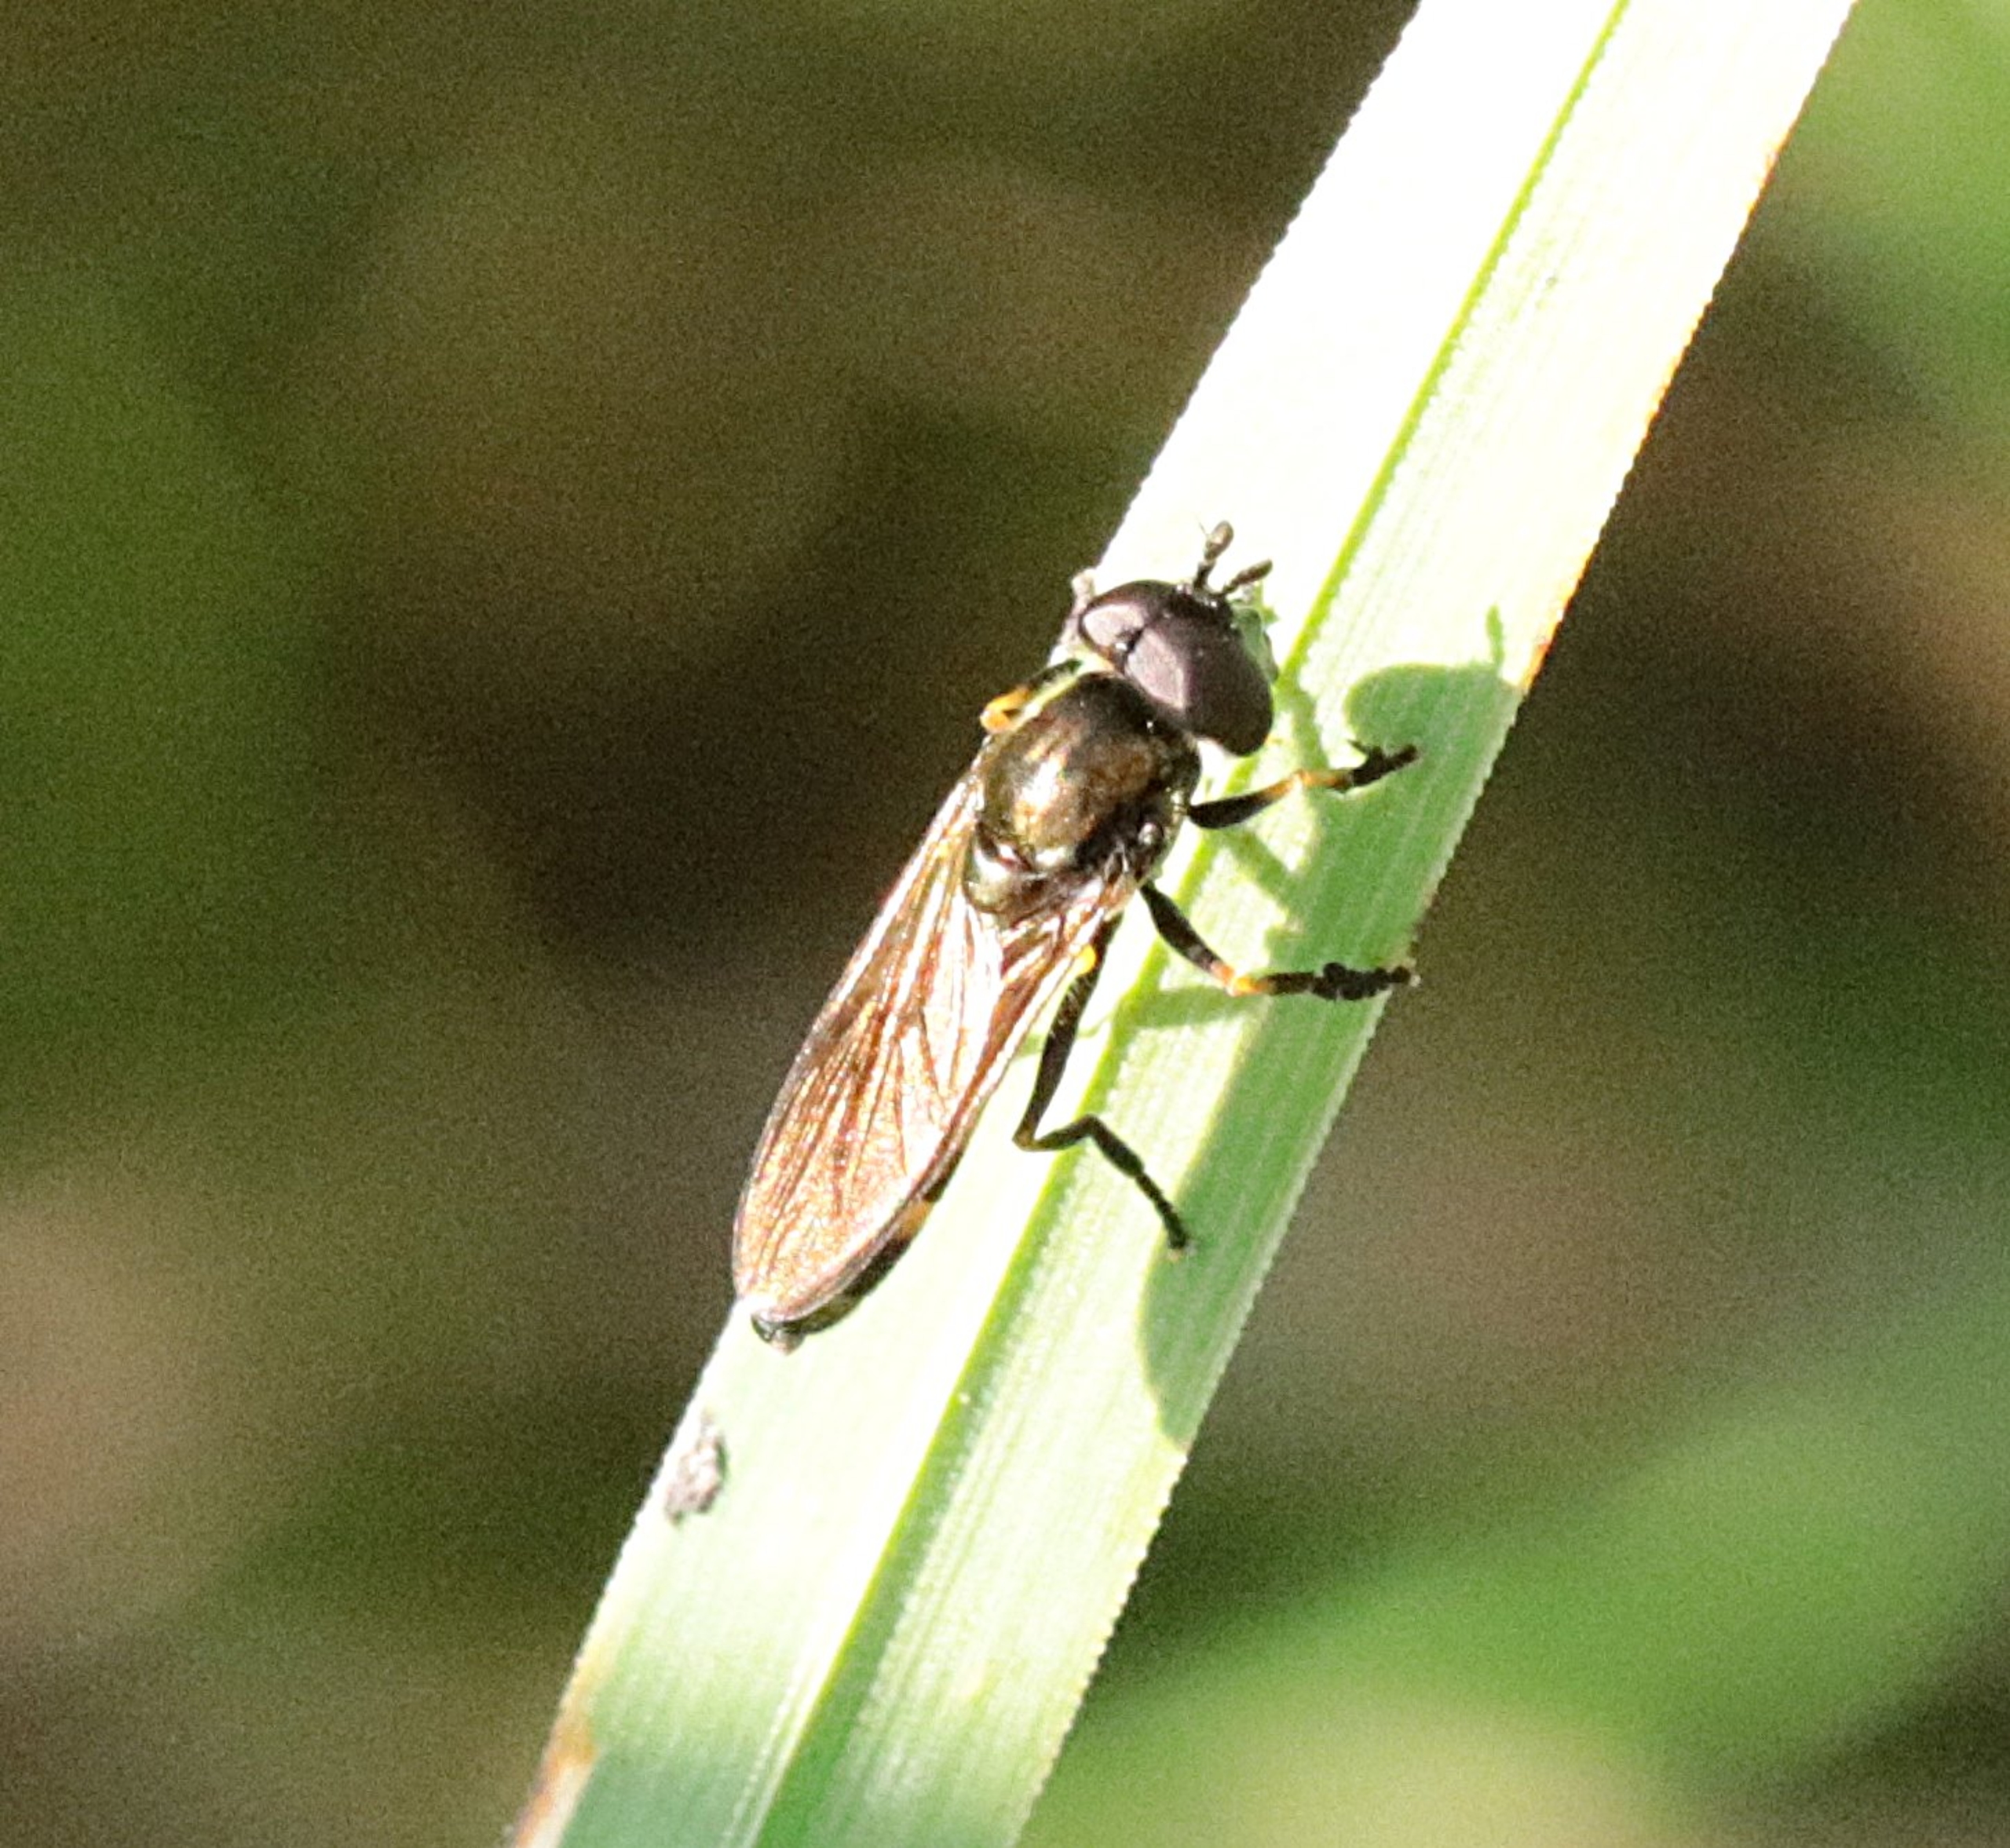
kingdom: Animalia
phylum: Arthropoda
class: Insecta
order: Diptera
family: Syrphidae
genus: Platycheirus
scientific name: Platycheirus granditarsis
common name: Rød ildsvirreflue
